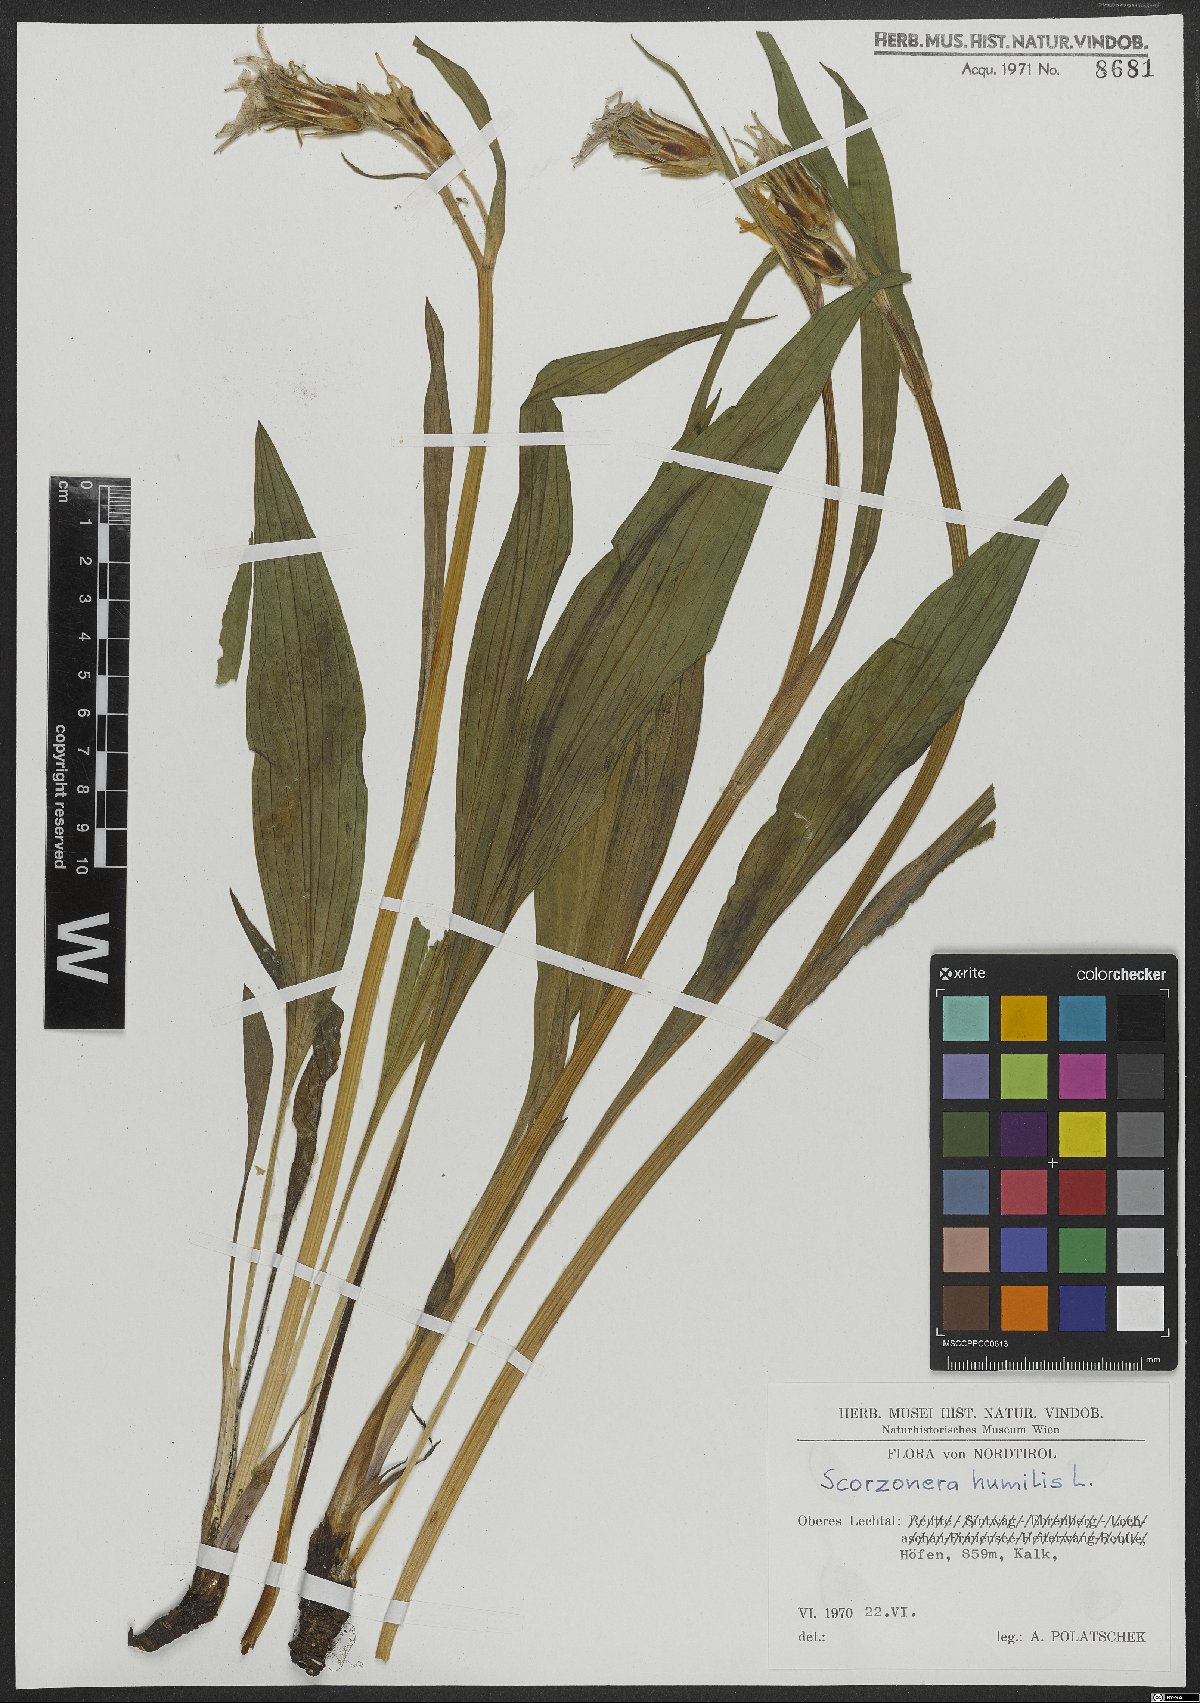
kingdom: Plantae
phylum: Tracheophyta
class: Magnoliopsida
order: Asterales
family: Asteraceae
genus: Scorzonera
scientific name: Scorzonera humilis
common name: Viper's-grass
